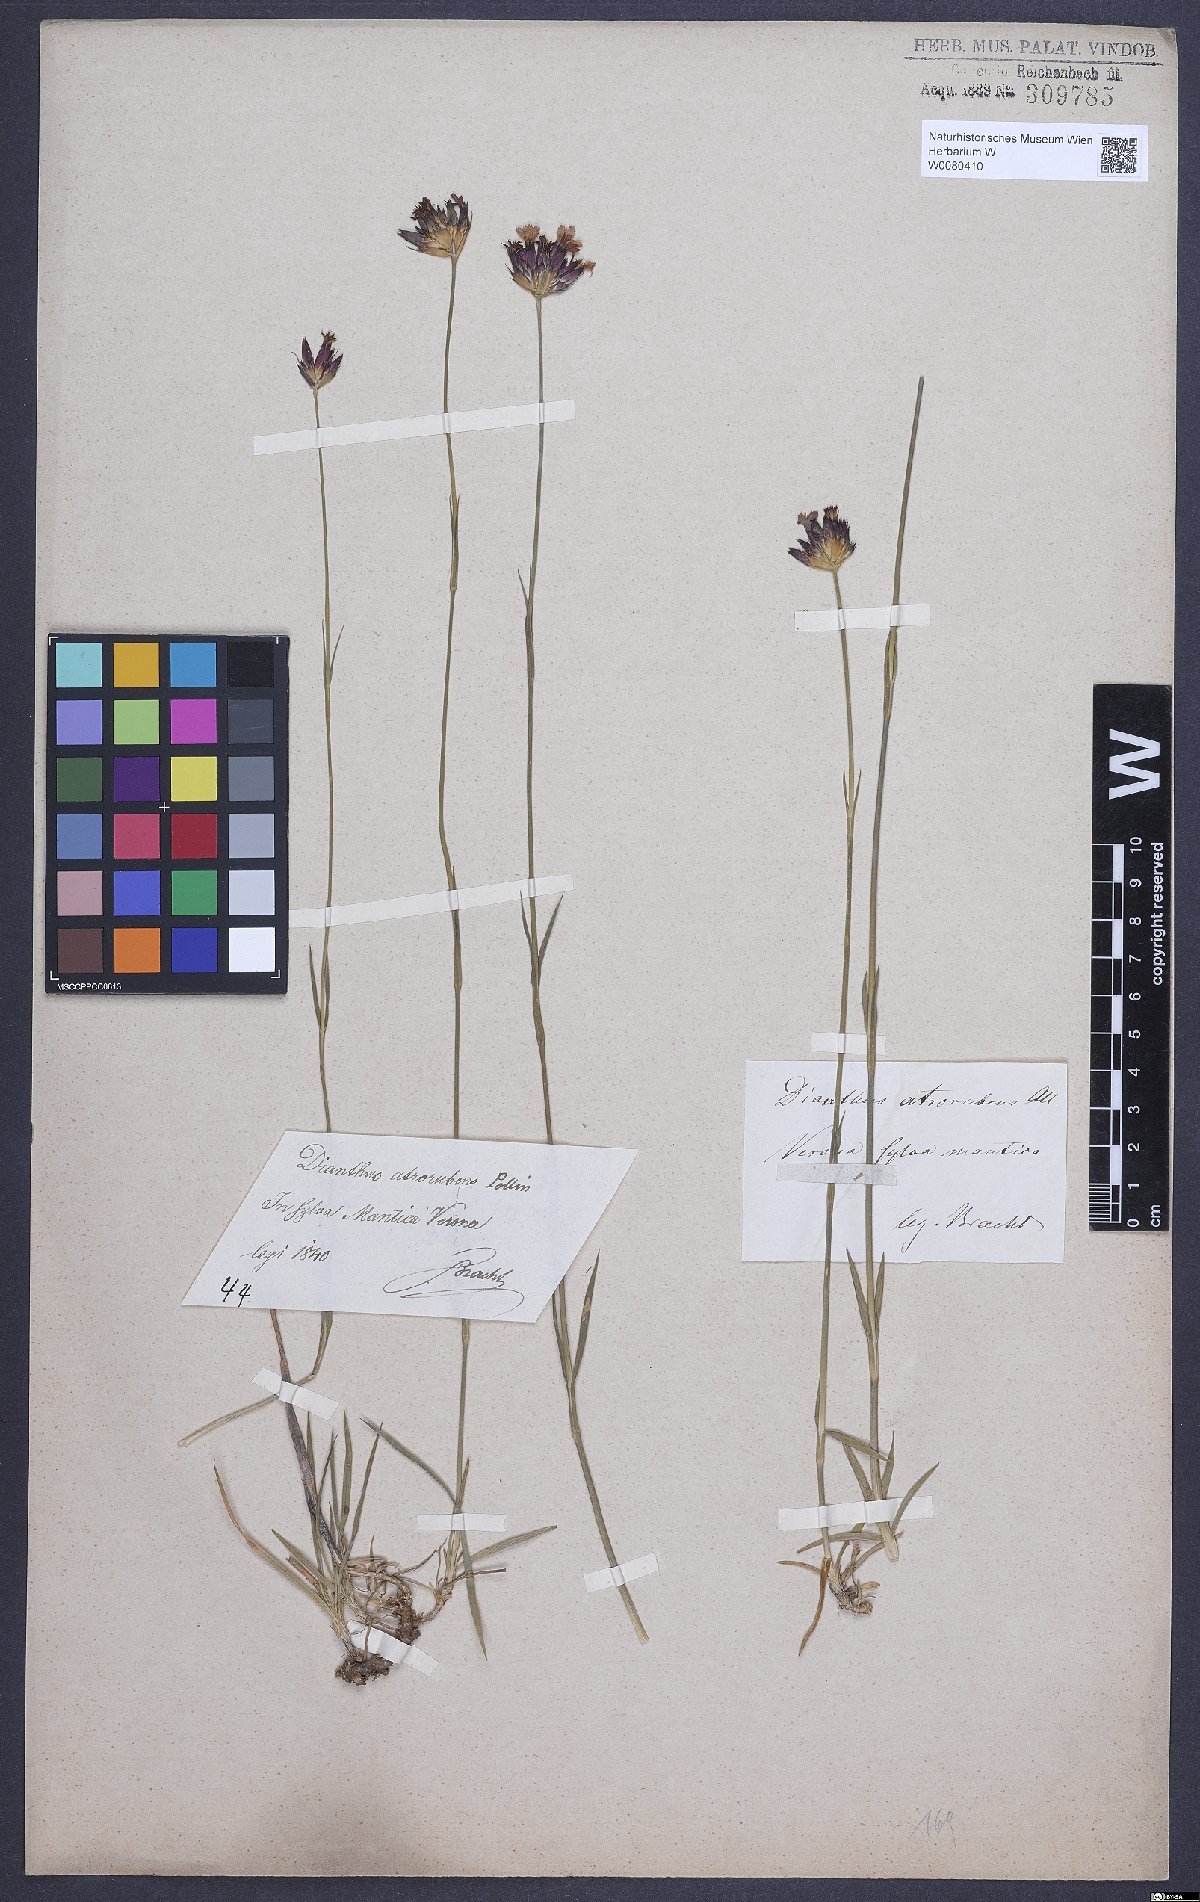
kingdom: Plantae
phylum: Tracheophyta
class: Magnoliopsida
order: Caryophyllales
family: Caryophyllaceae
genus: Dianthus
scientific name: Dianthus carthusianorum
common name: Carthusian pink
